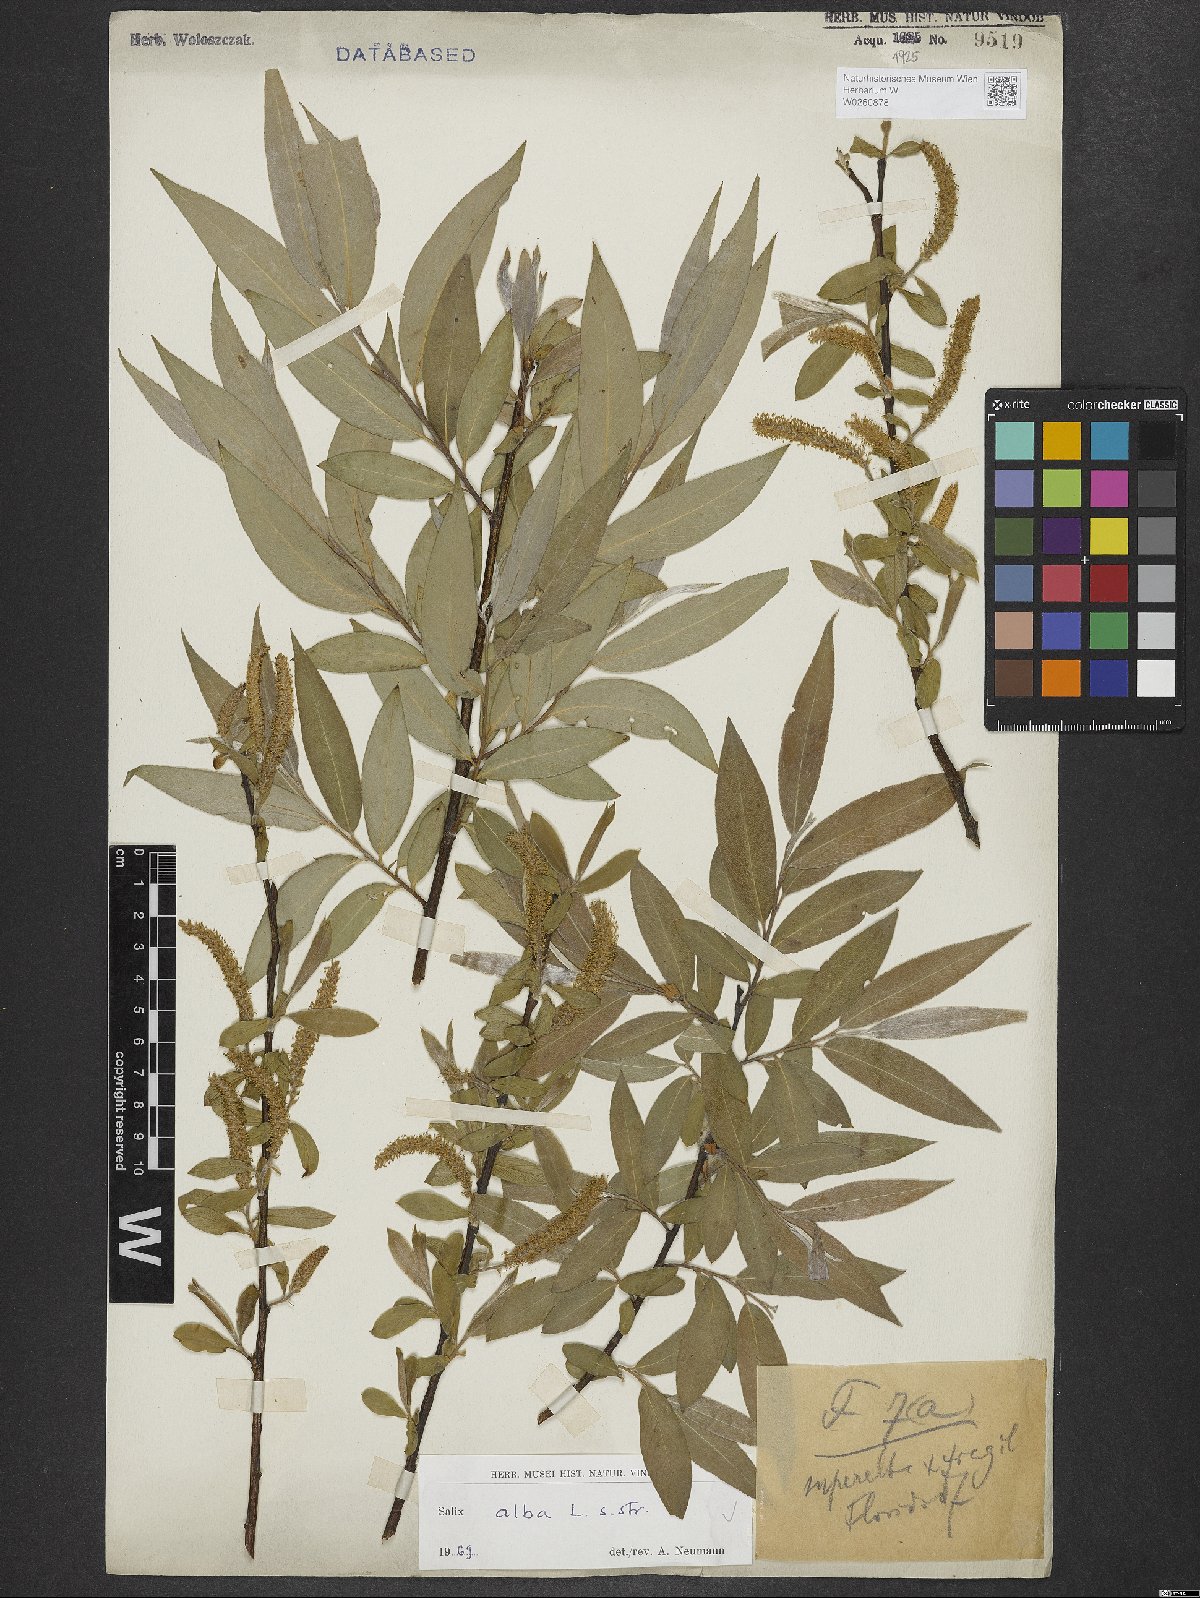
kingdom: Plantae
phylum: Tracheophyta
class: Magnoliopsida
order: Malpighiales
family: Salicaceae
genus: Salix
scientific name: Salix alba
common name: White willow
